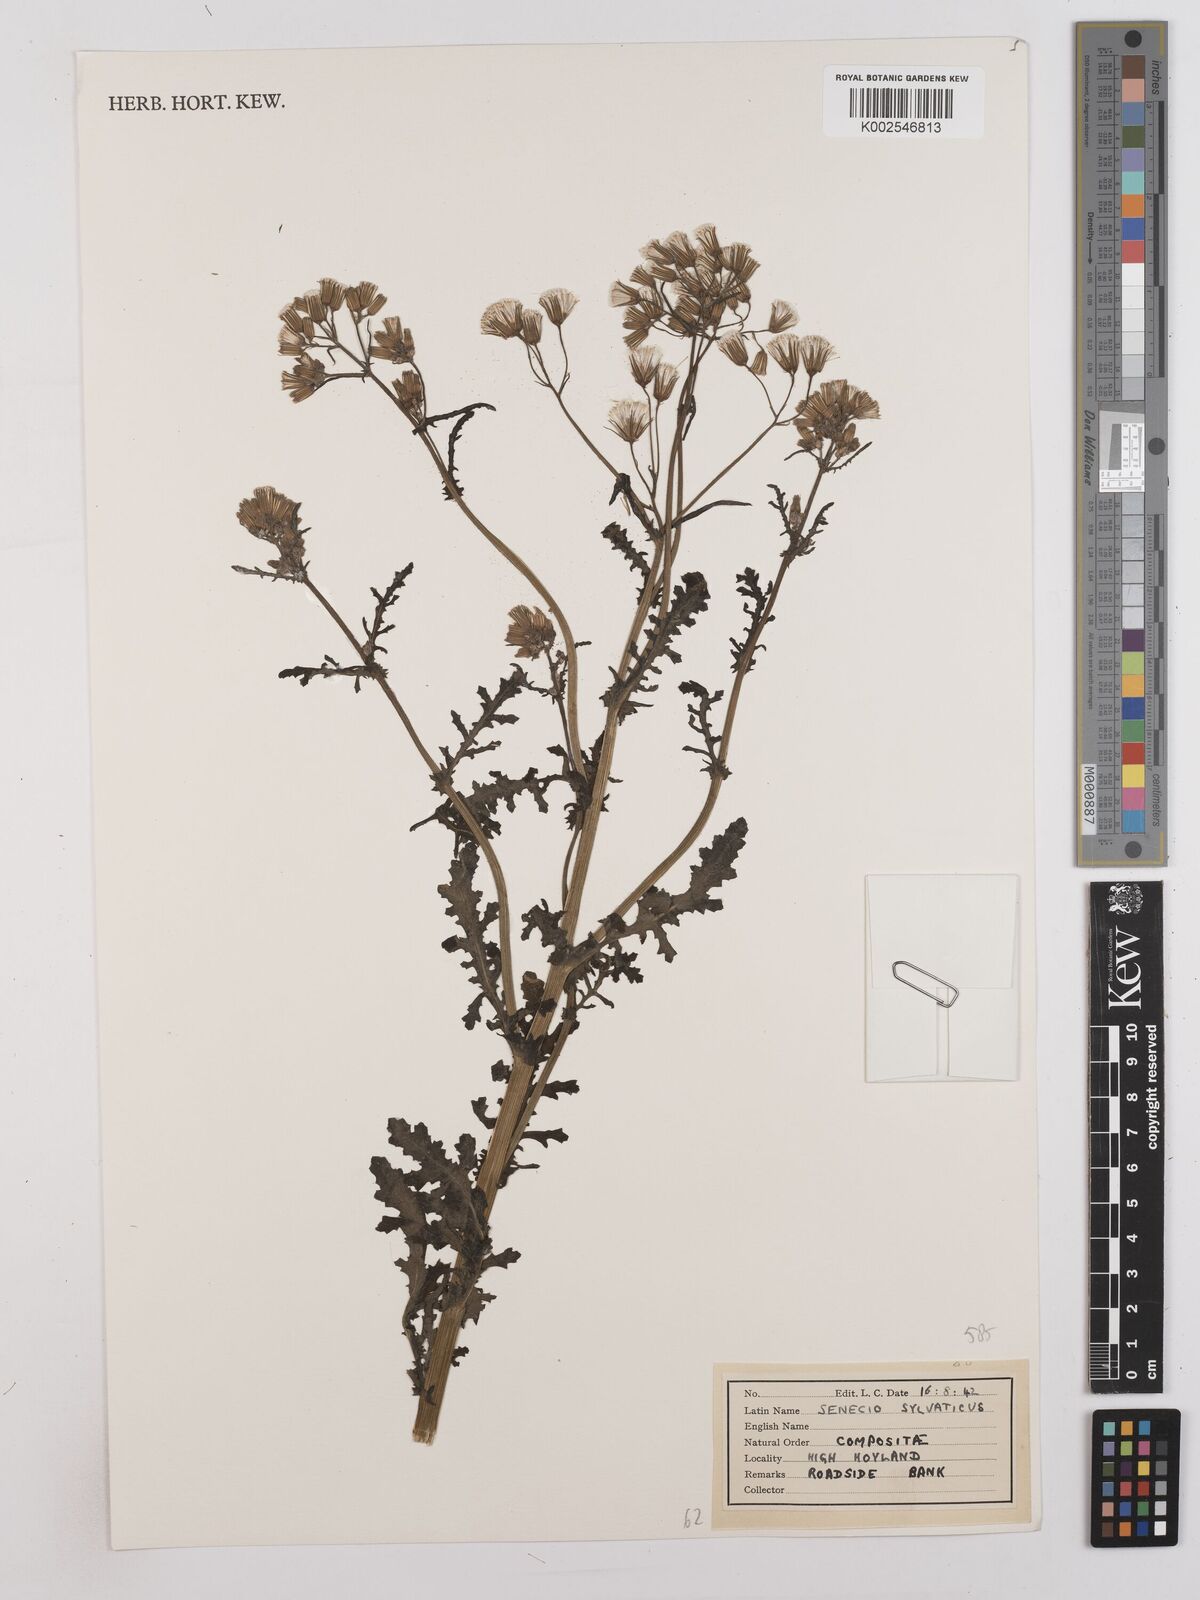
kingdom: Plantae
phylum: Tracheophyta
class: Magnoliopsida
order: Asterales
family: Asteraceae
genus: Senecio
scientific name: Senecio sylvaticus
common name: Woodland ragwort
